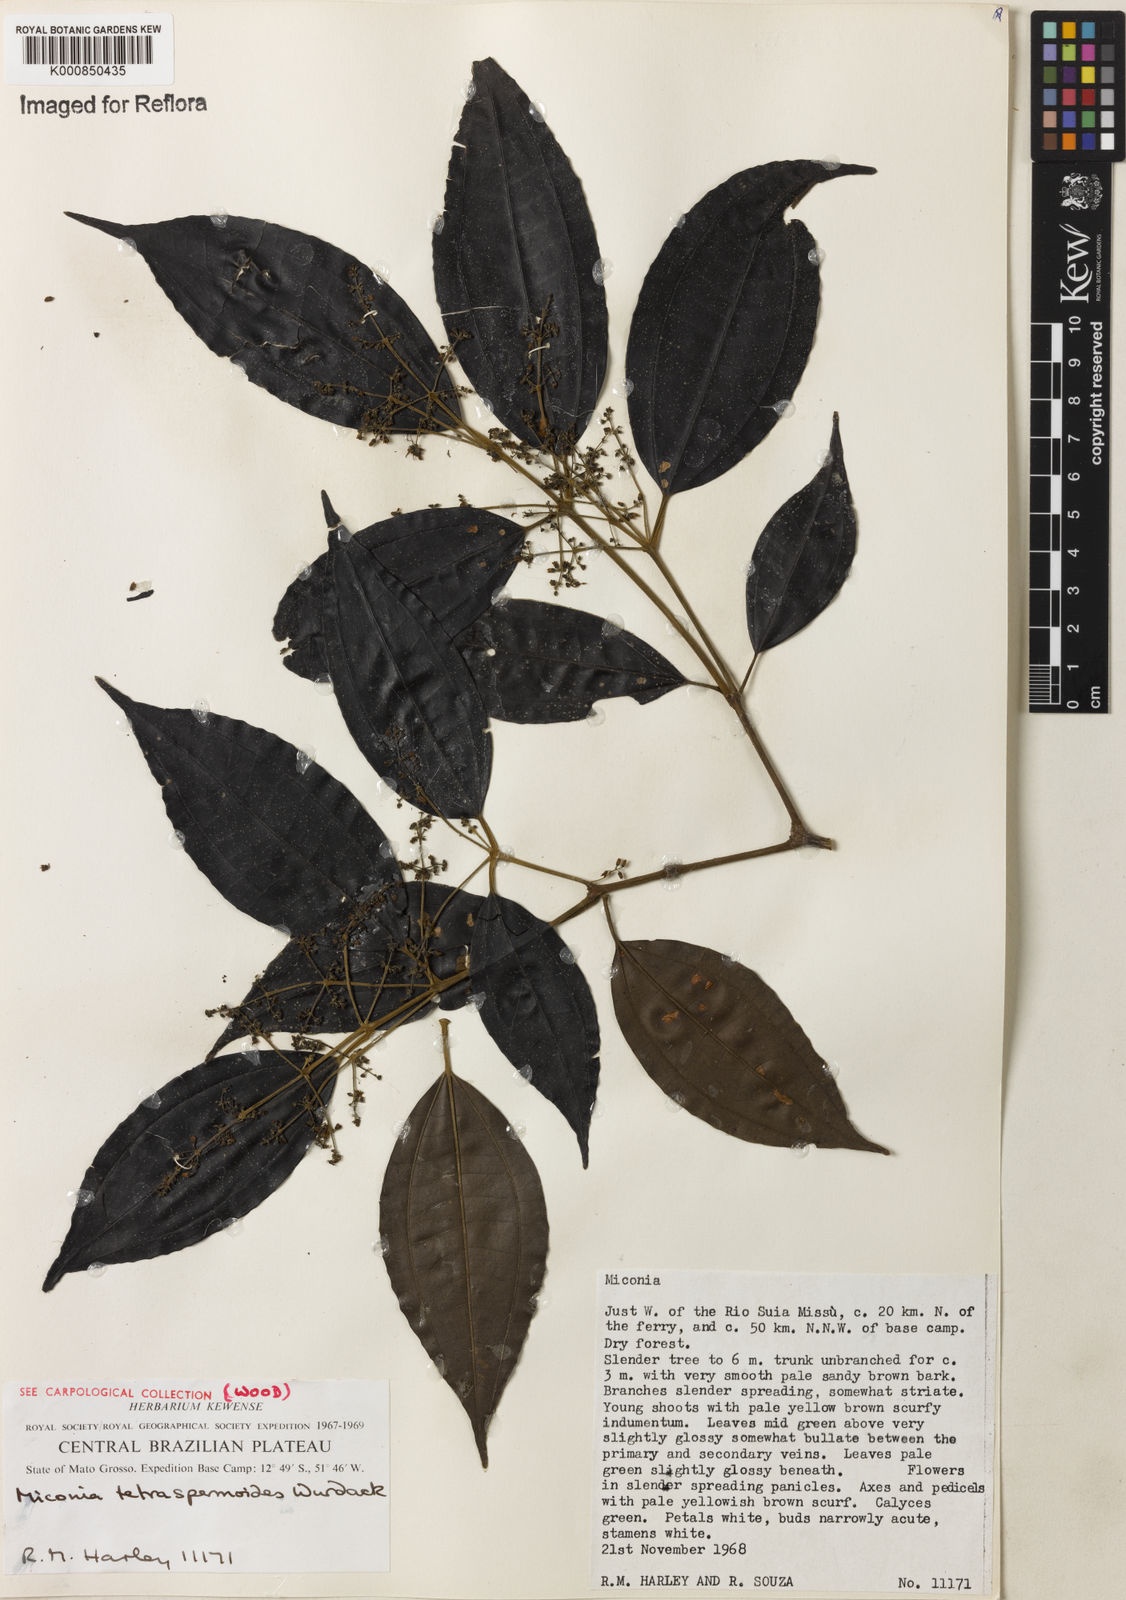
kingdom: Plantae
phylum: Tracheophyta
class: Magnoliopsida
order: Myrtales
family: Melastomataceae
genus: Miconia
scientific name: Miconia tetraspermoides
